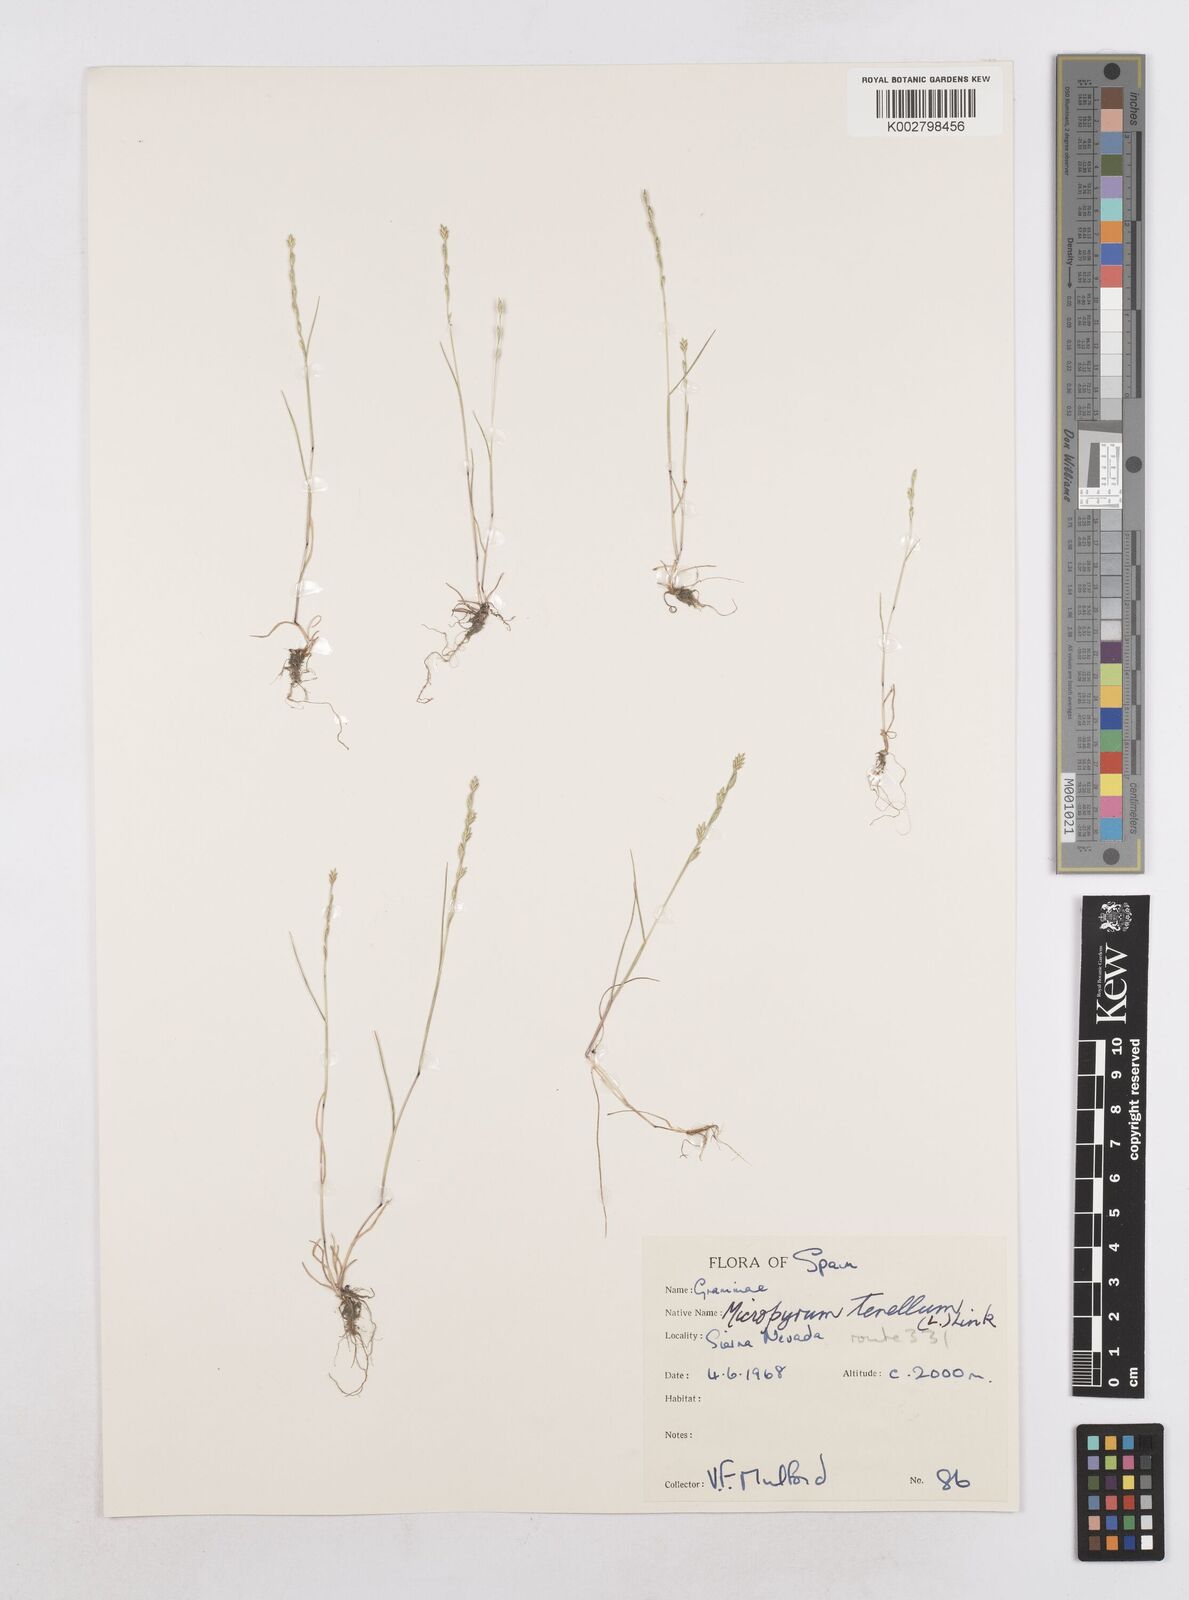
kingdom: Plantae
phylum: Tracheophyta
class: Liliopsida
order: Poales
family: Poaceae
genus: Festuca
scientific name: Festuca lachenalii
